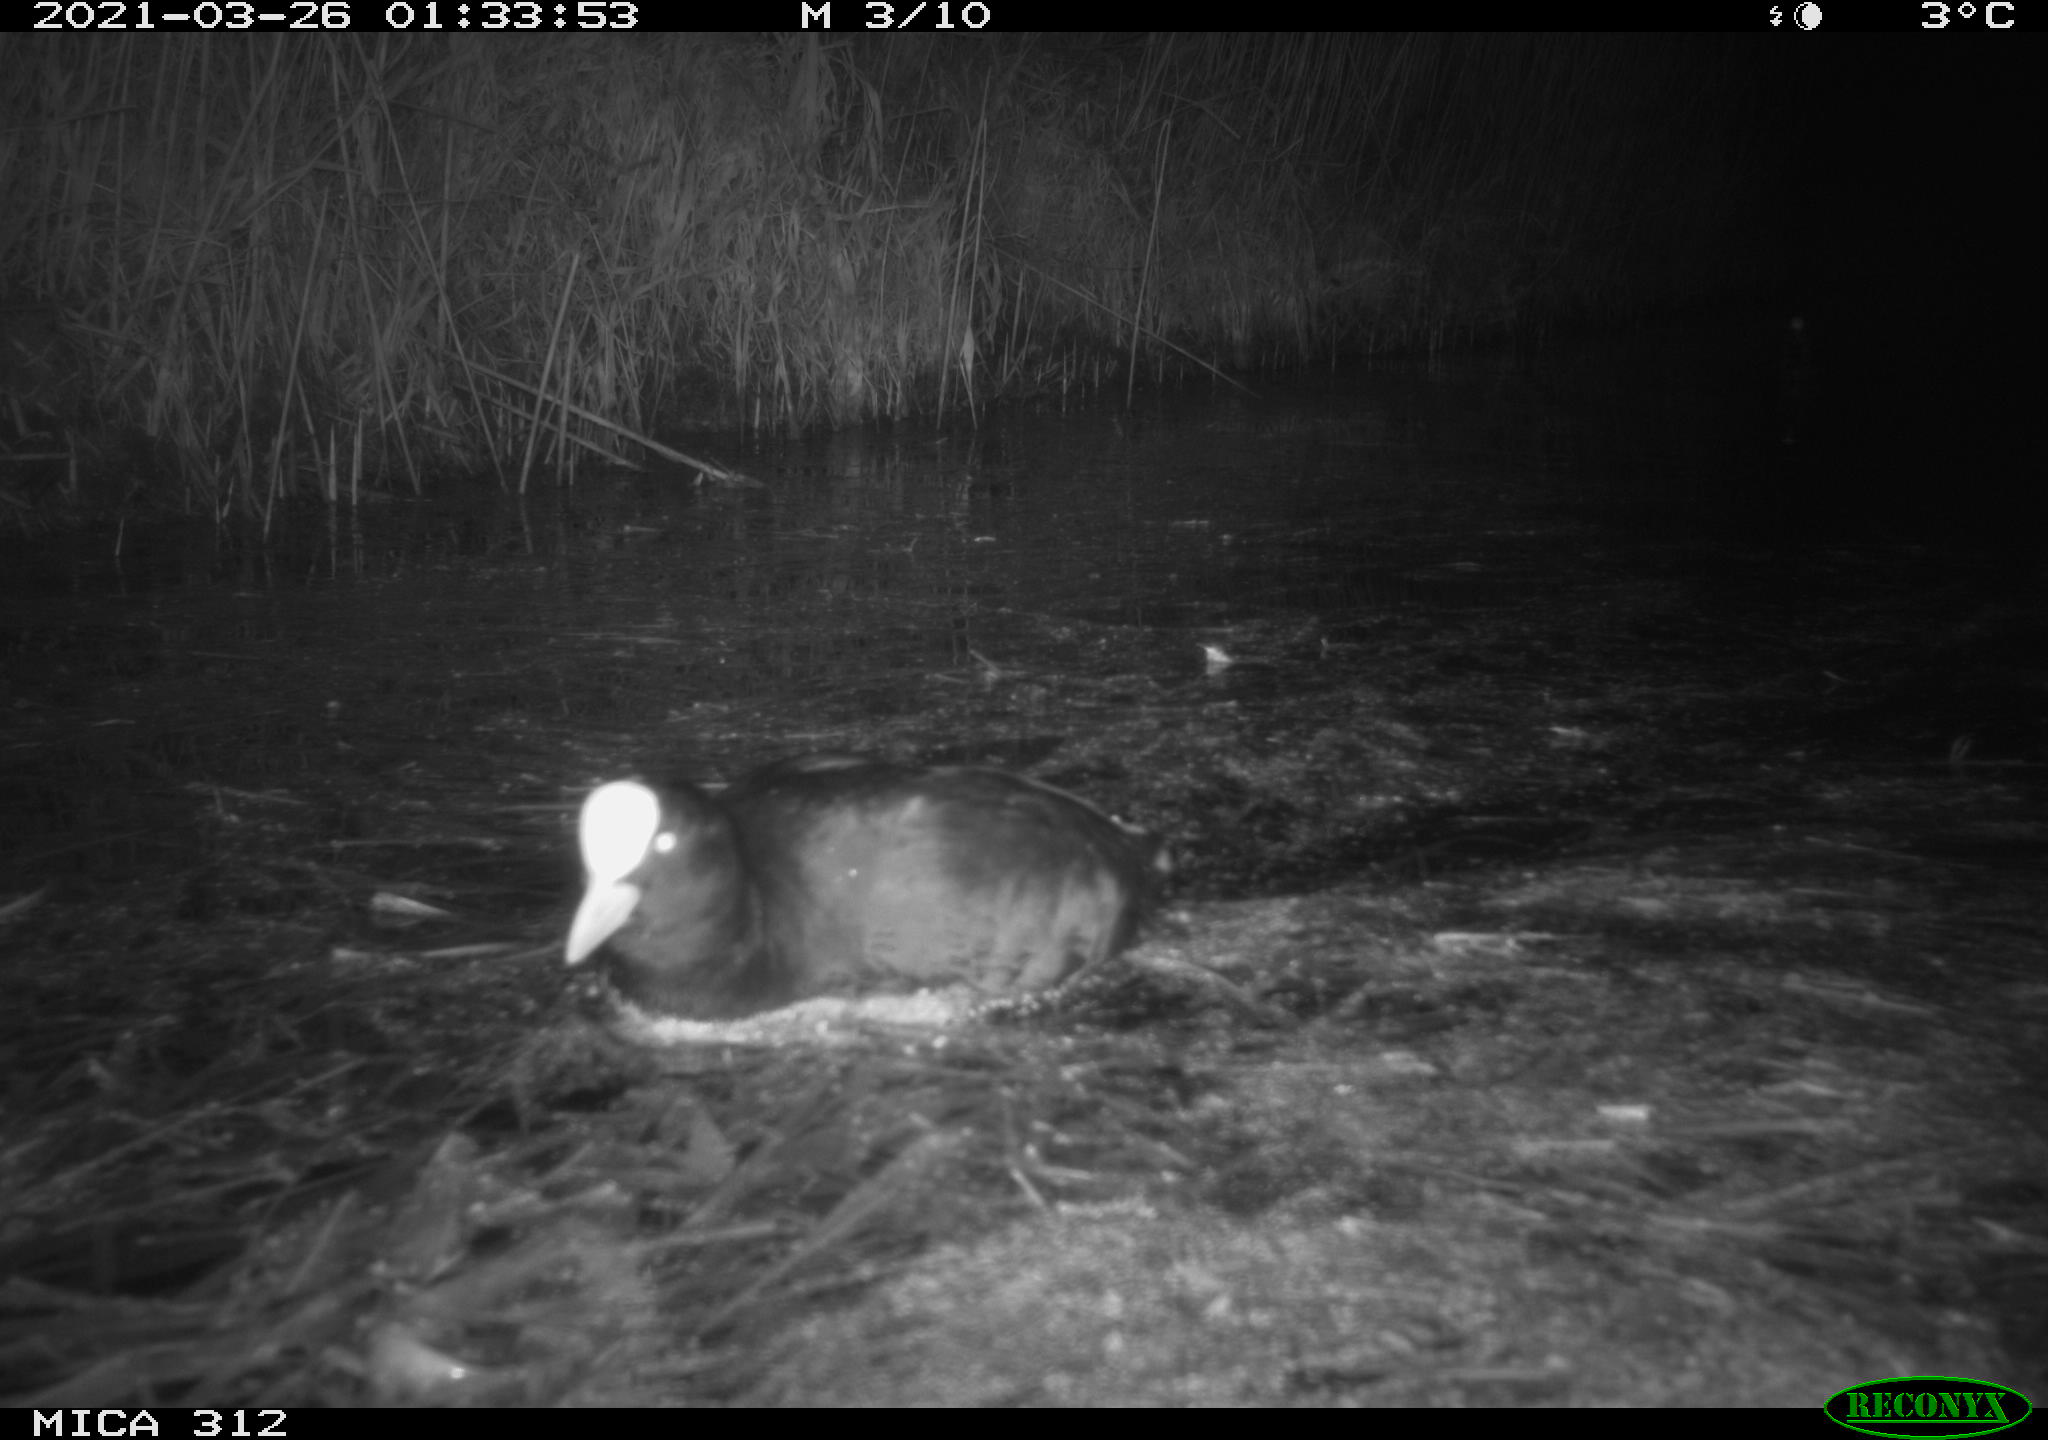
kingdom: Animalia
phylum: Chordata
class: Aves
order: Gruiformes
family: Rallidae
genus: Fulica
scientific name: Fulica atra
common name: Eurasian coot
